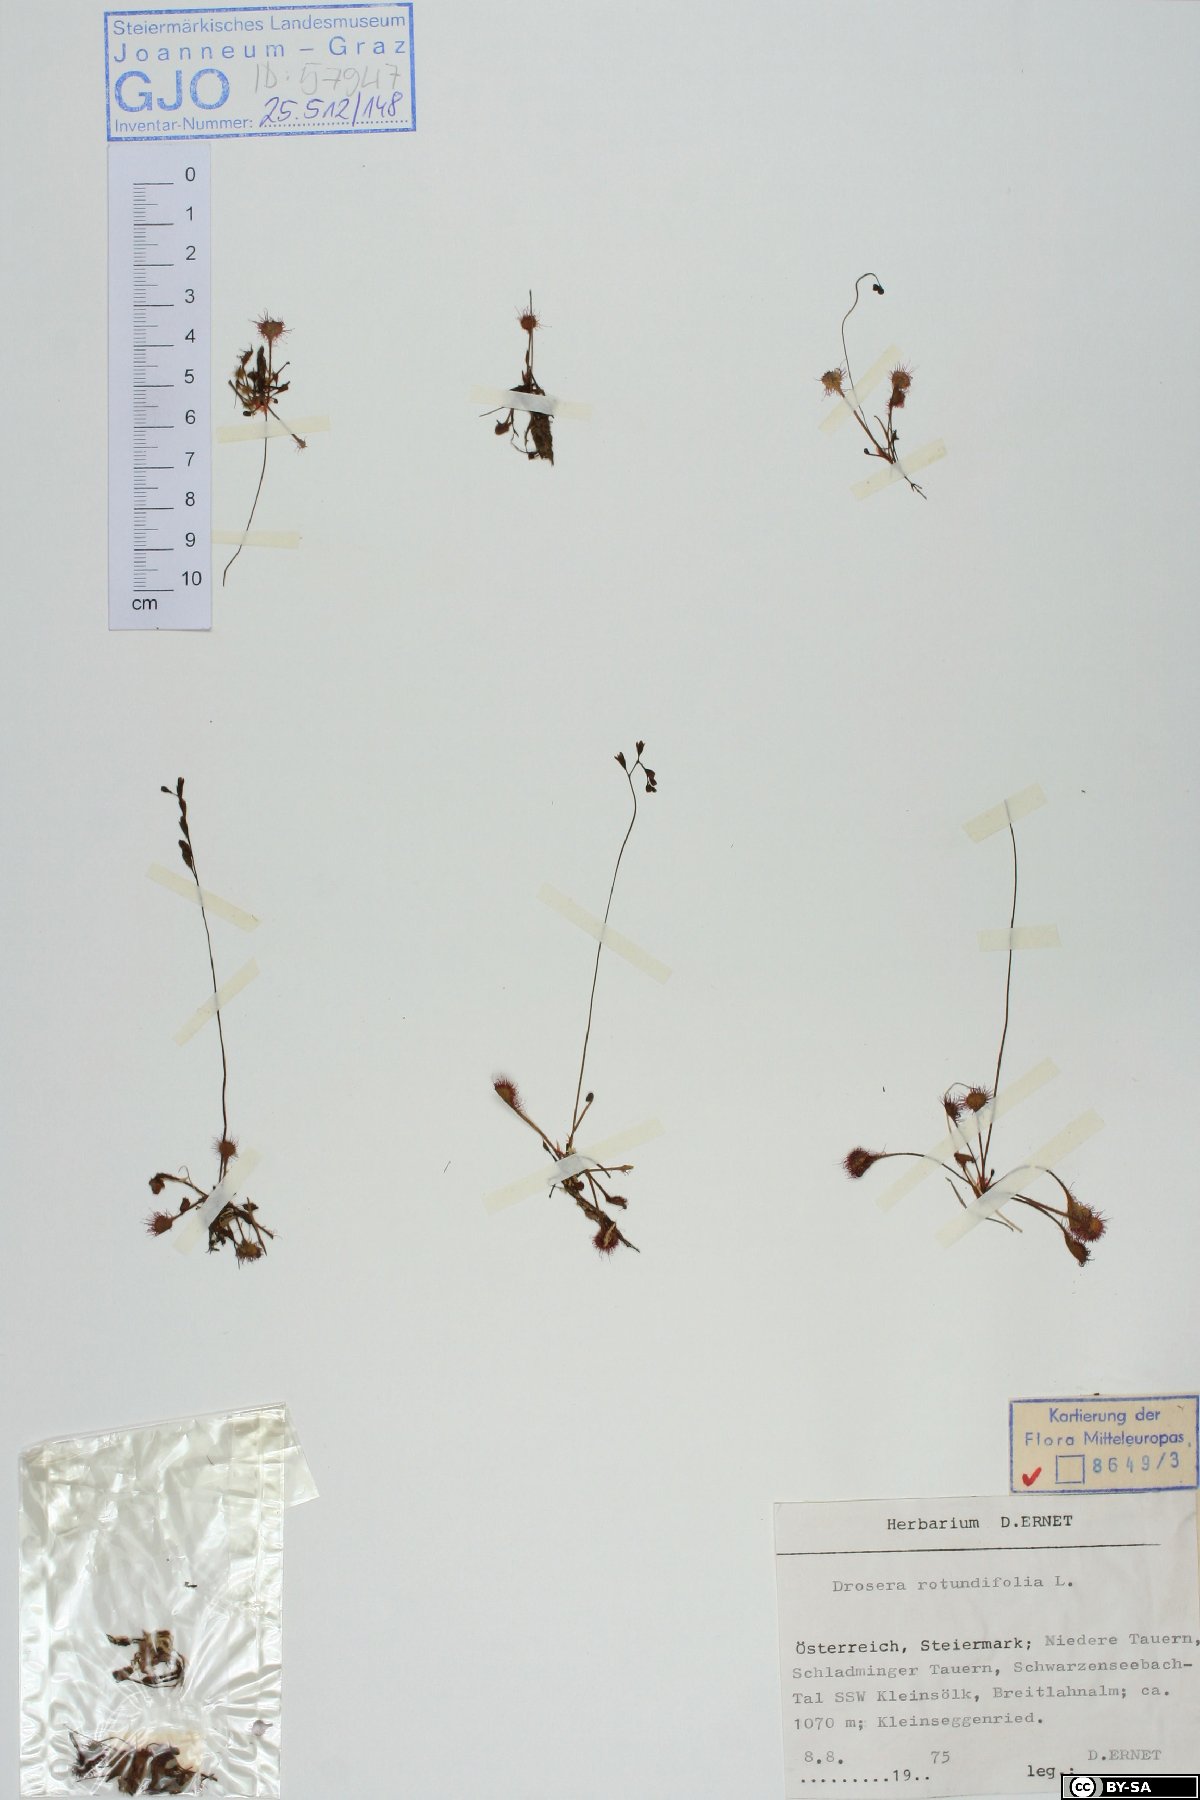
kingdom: Plantae
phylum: Tracheophyta
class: Magnoliopsida
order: Caryophyllales
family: Droseraceae
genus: Drosera
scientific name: Drosera rotundifolia
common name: Round-leaved sundew
